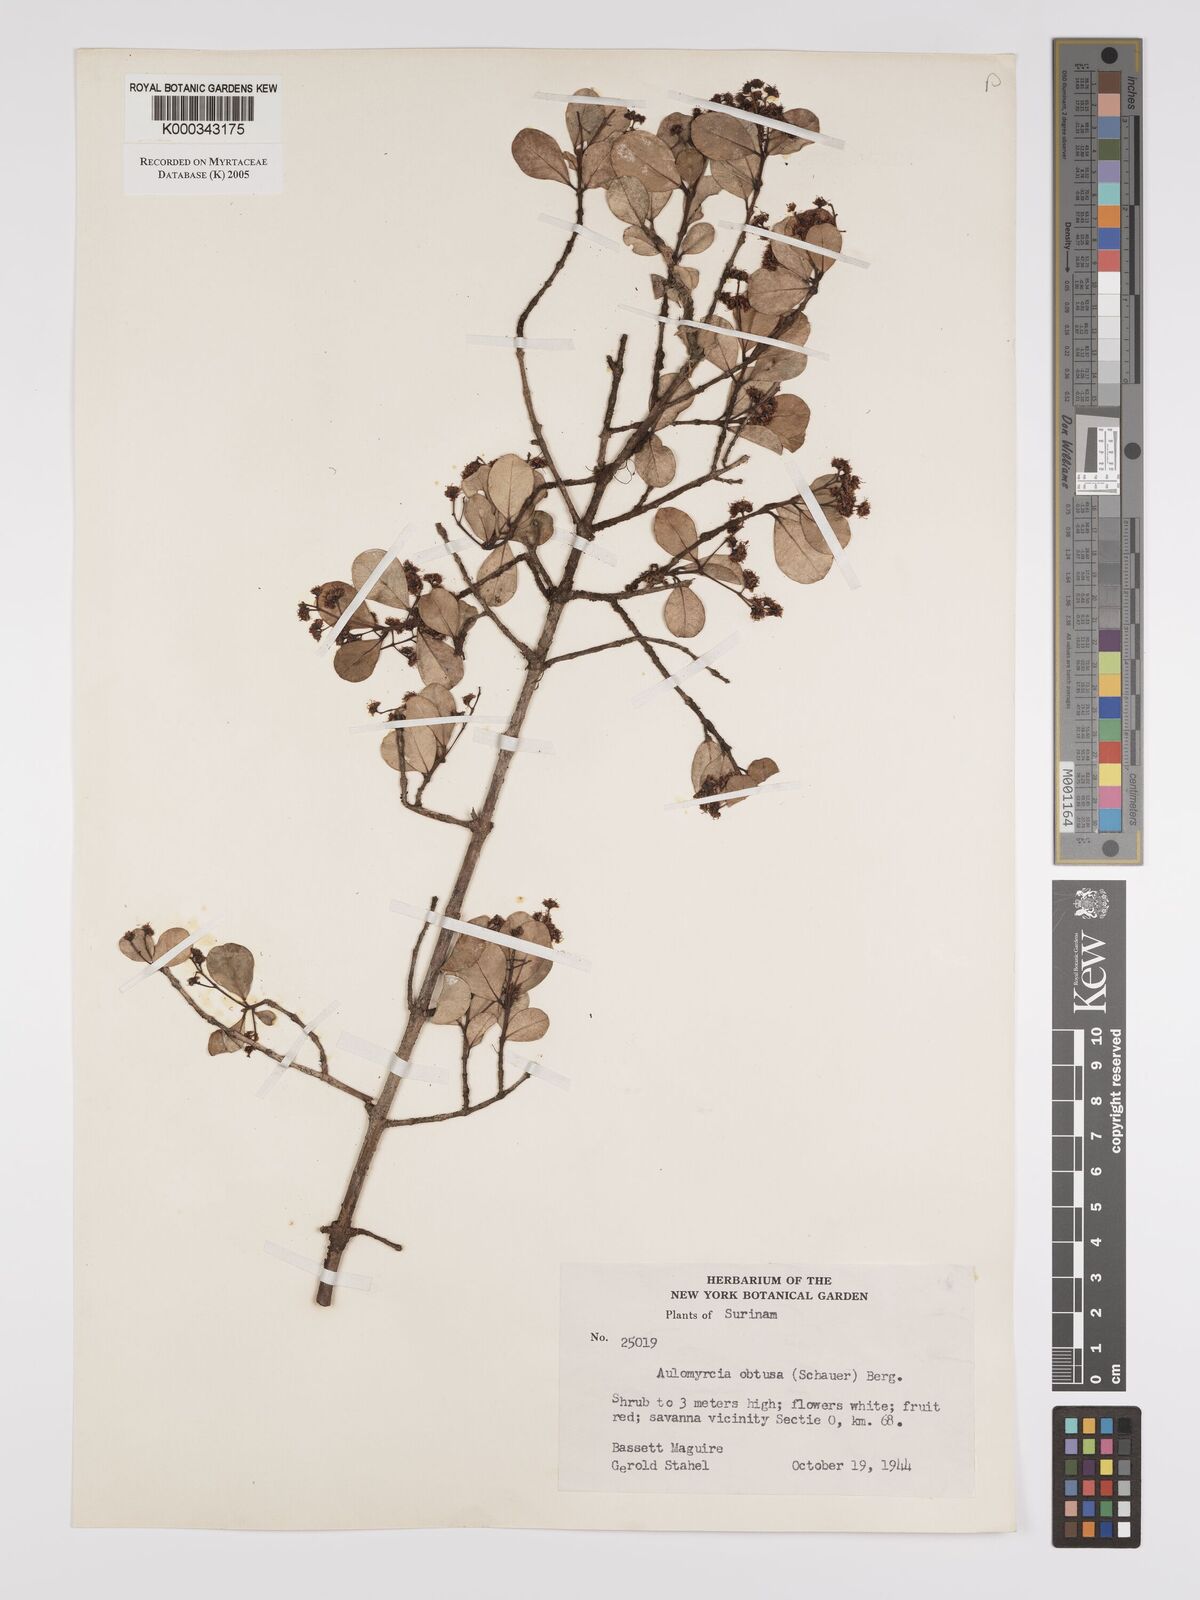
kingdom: Plantae
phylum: Tracheophyta
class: Magnoliopsida
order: Myrtales
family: Myrtaceae
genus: Myrcia
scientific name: Myrcia guianensis
